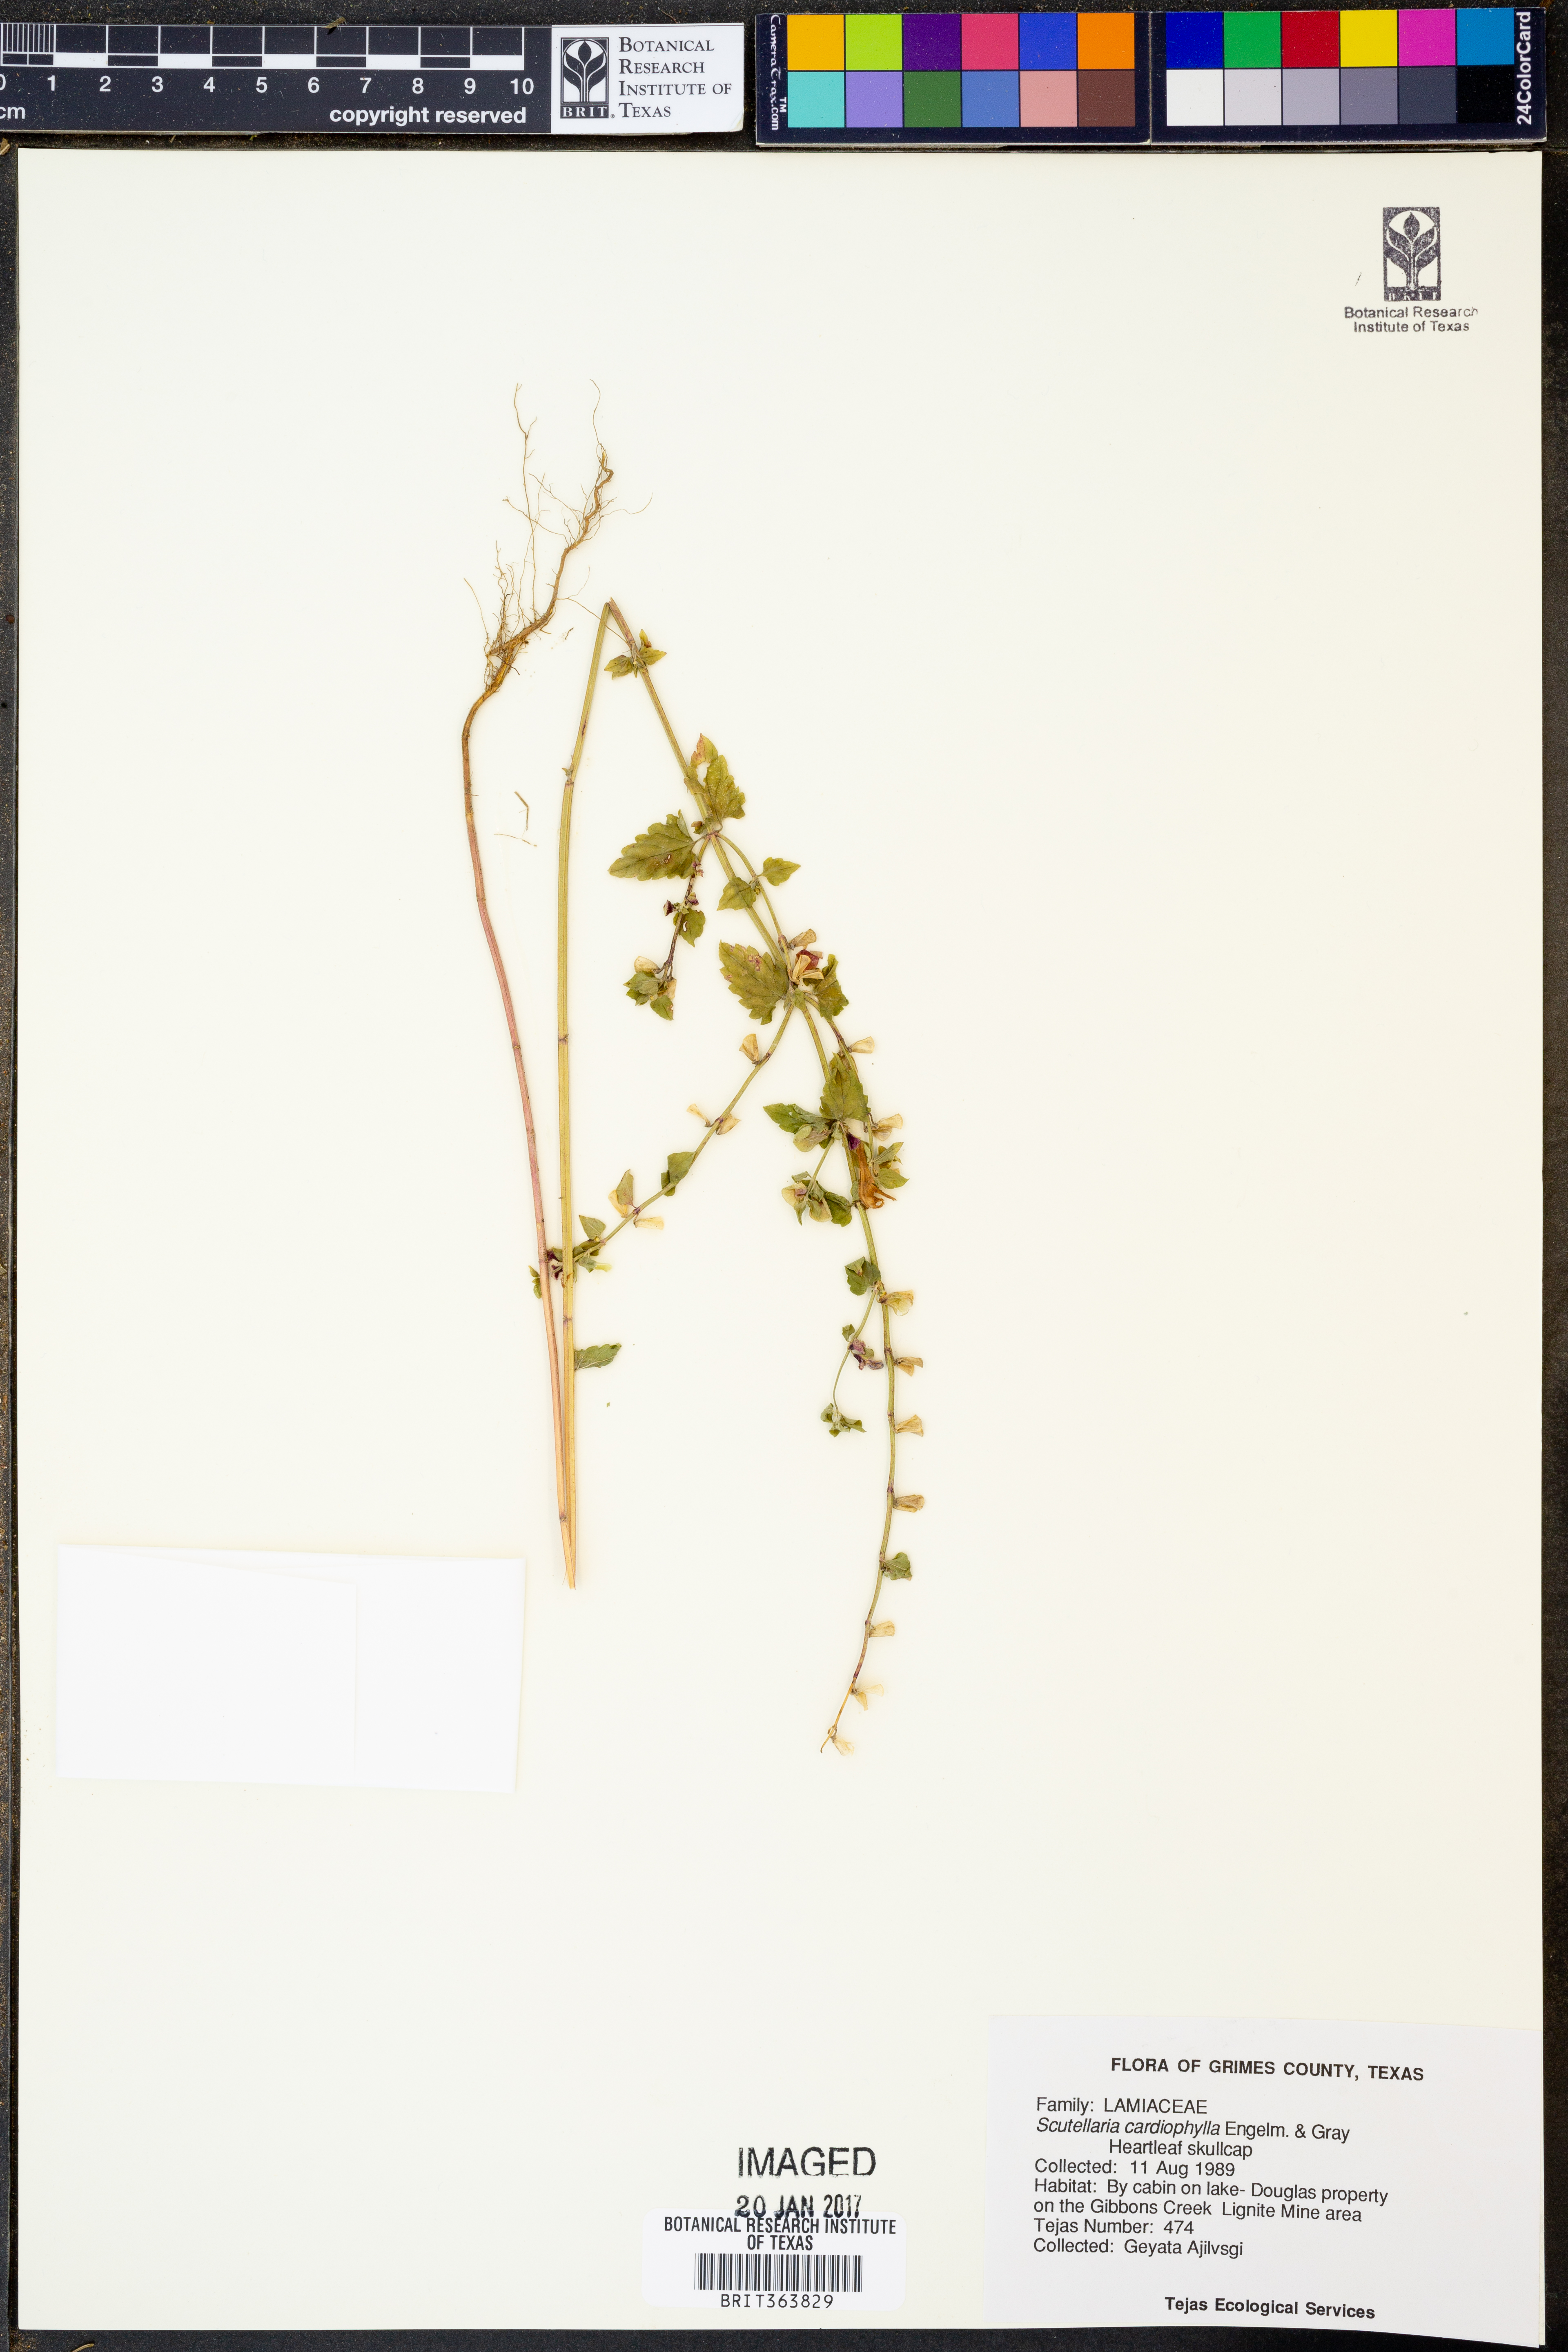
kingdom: Plantae
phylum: Tracheophyta
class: Magnoliopsida
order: Lamiales
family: Lamiaceae
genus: Scutellaria
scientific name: Scutellaria cardiophylla
